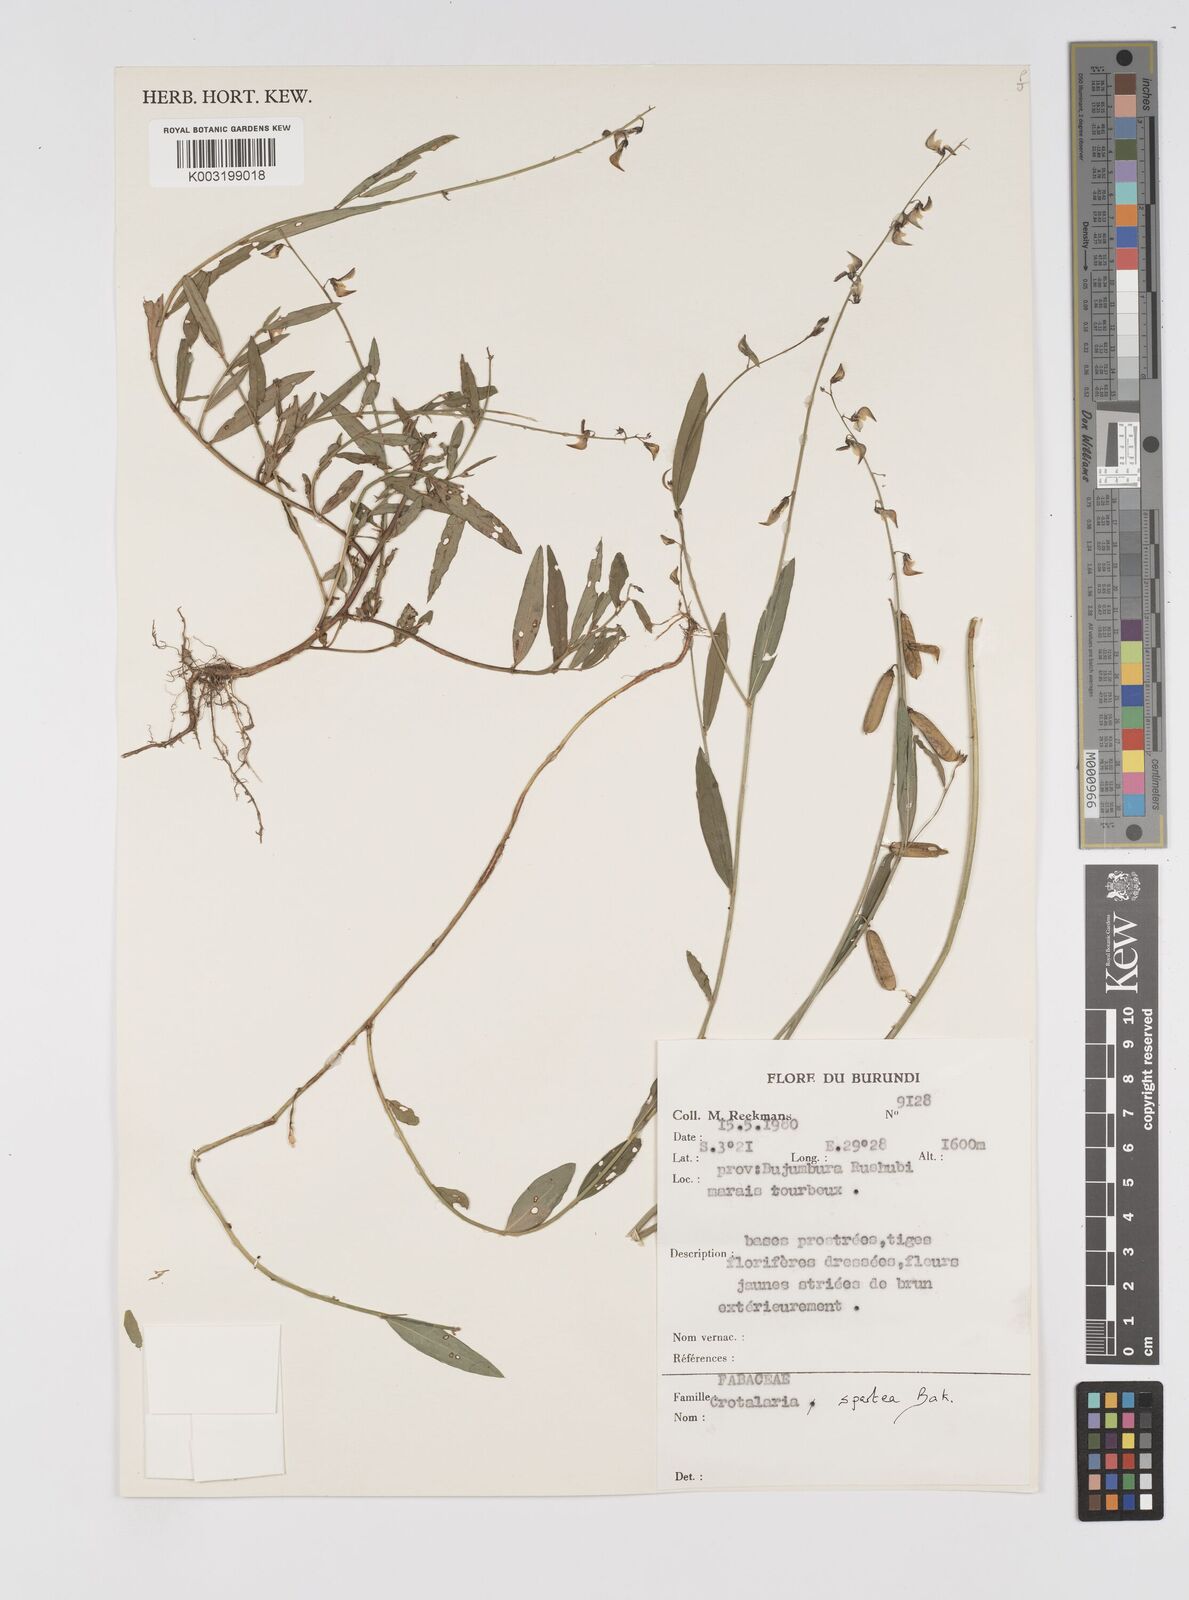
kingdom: Plantae
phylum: Tracheophyta
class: Magnoliopsida
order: Fabales
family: Fabaceae
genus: Crotalaria
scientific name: Crotalaria spartea
